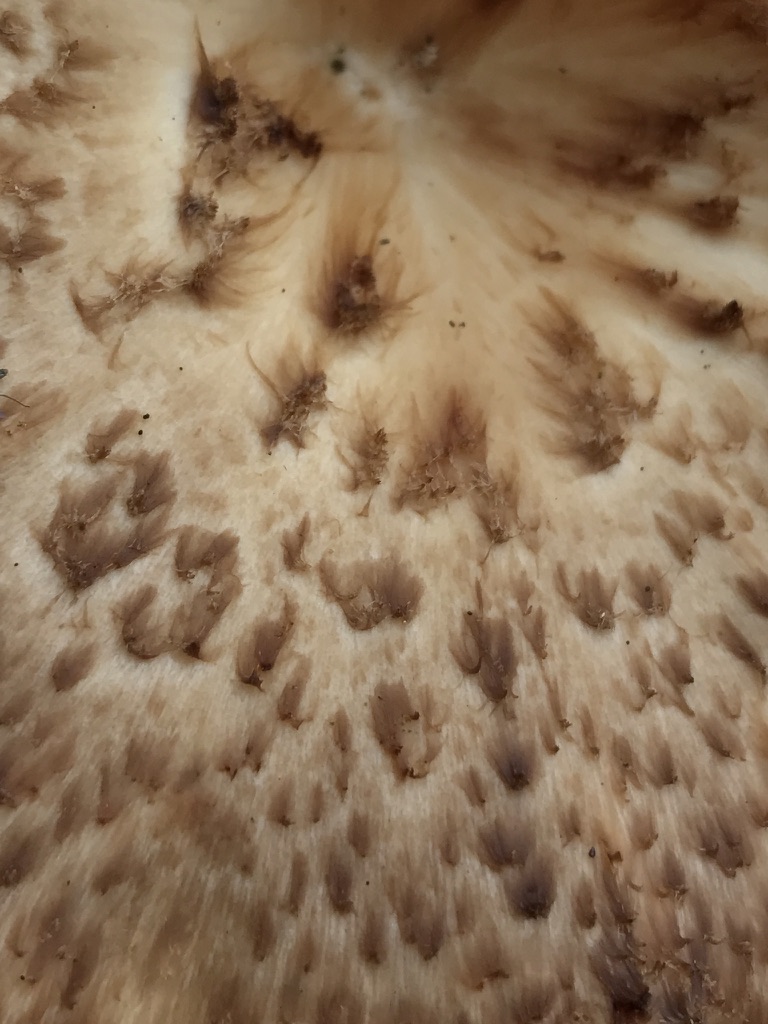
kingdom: Fungi
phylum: Basidiomycota
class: Agaricomycetes
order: Polyporales
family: Polyporaceae
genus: Polyporus
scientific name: Polyporus tuberaster
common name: knoldet stilkporesvamp
